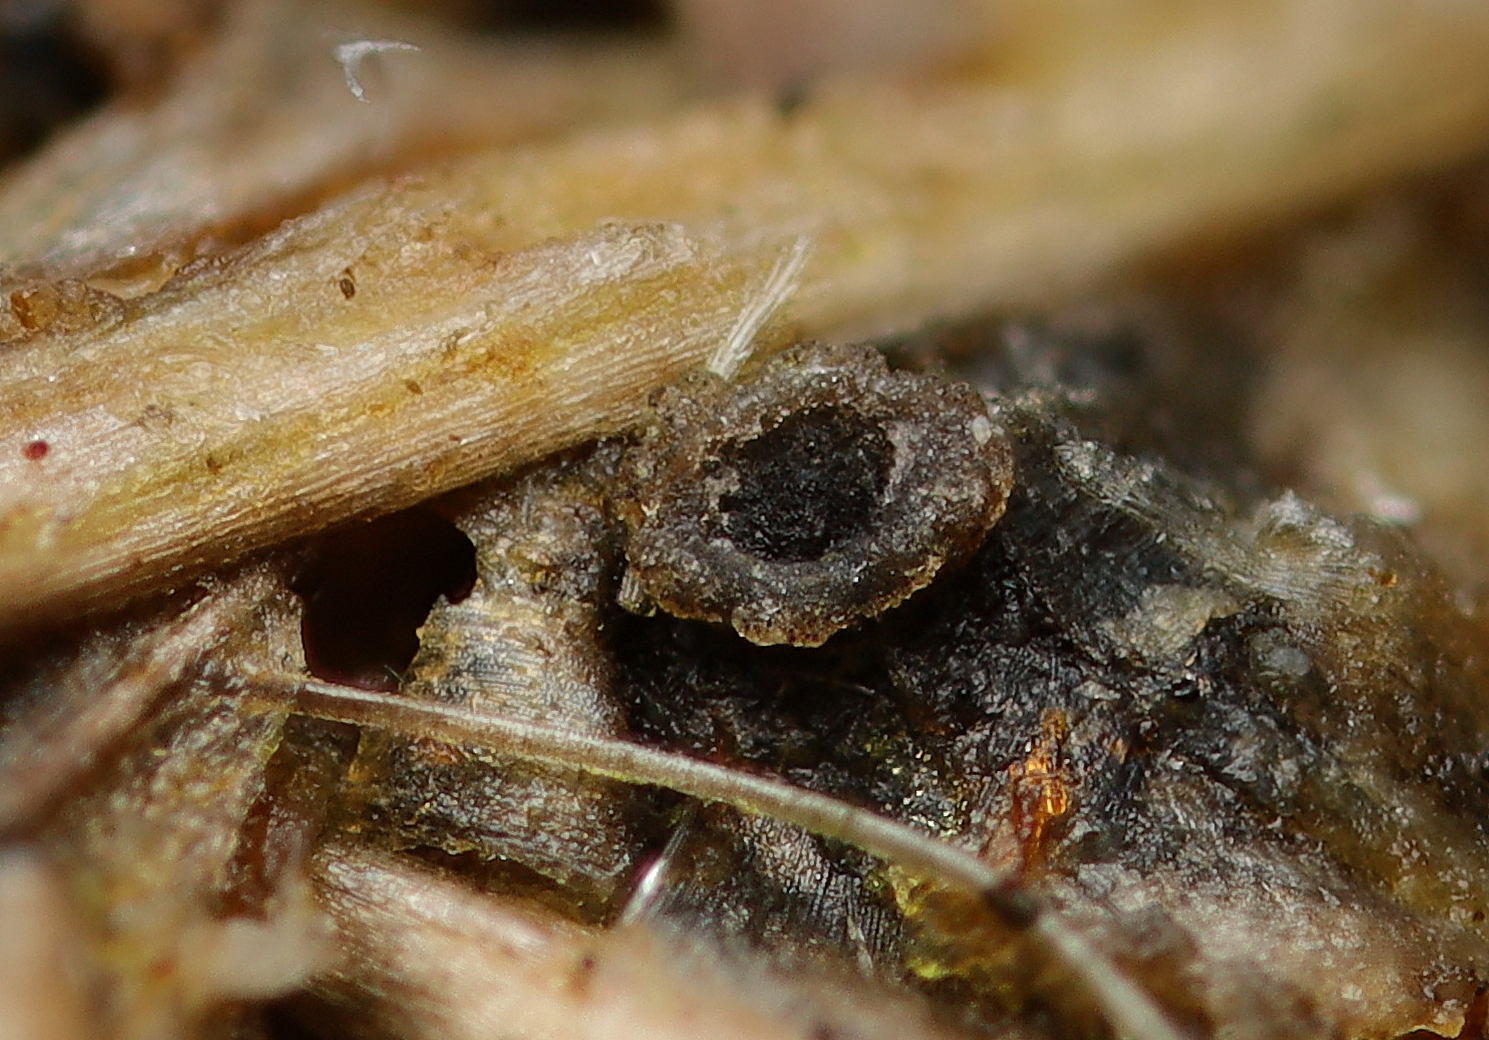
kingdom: Fungi
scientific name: Fungi
